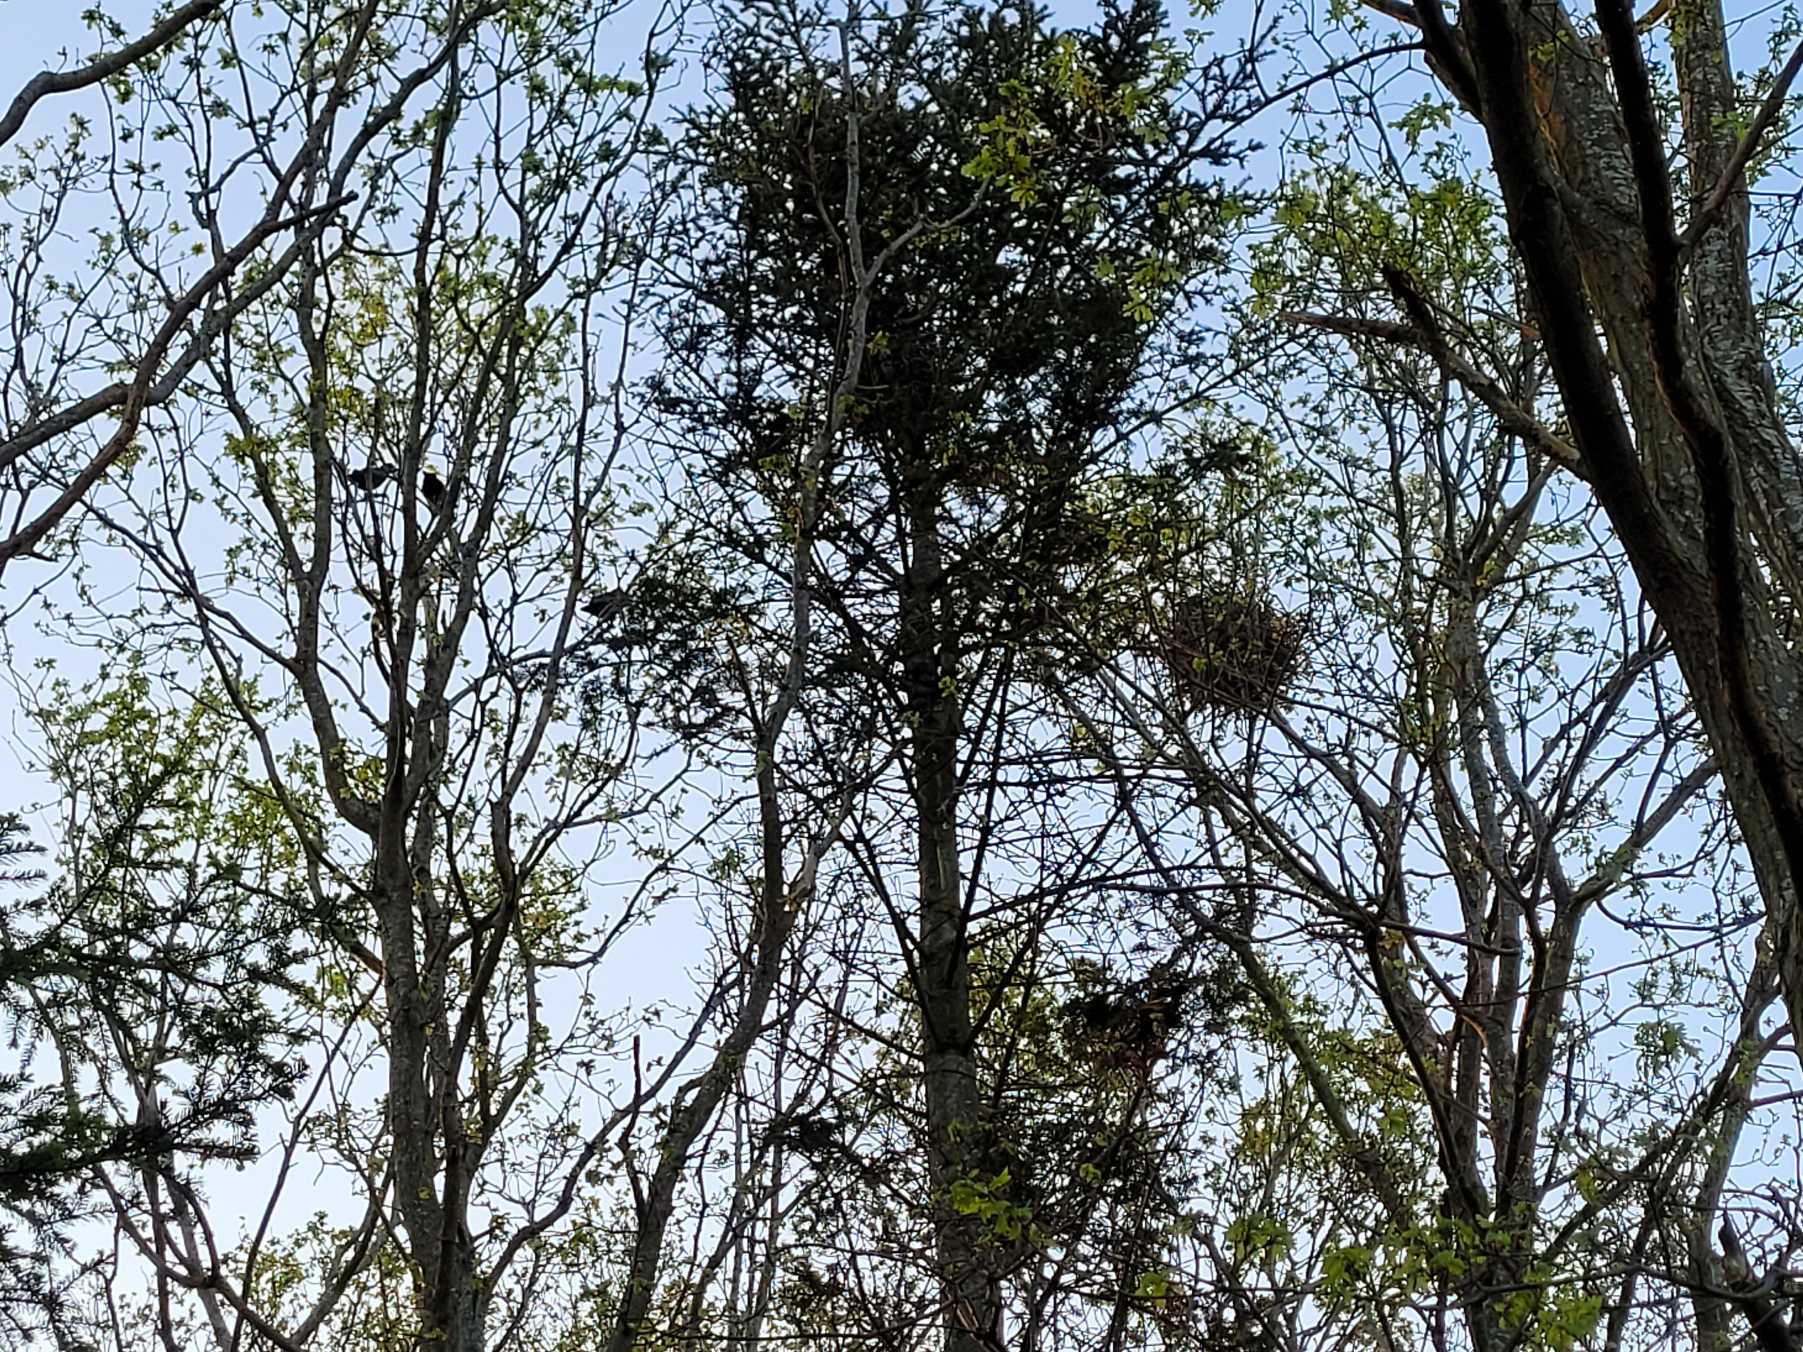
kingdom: Animalia
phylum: Chordata
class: Aves
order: Passeriformes
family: Corvidae
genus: Corvus
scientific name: Corvus frugilegus
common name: Råge
